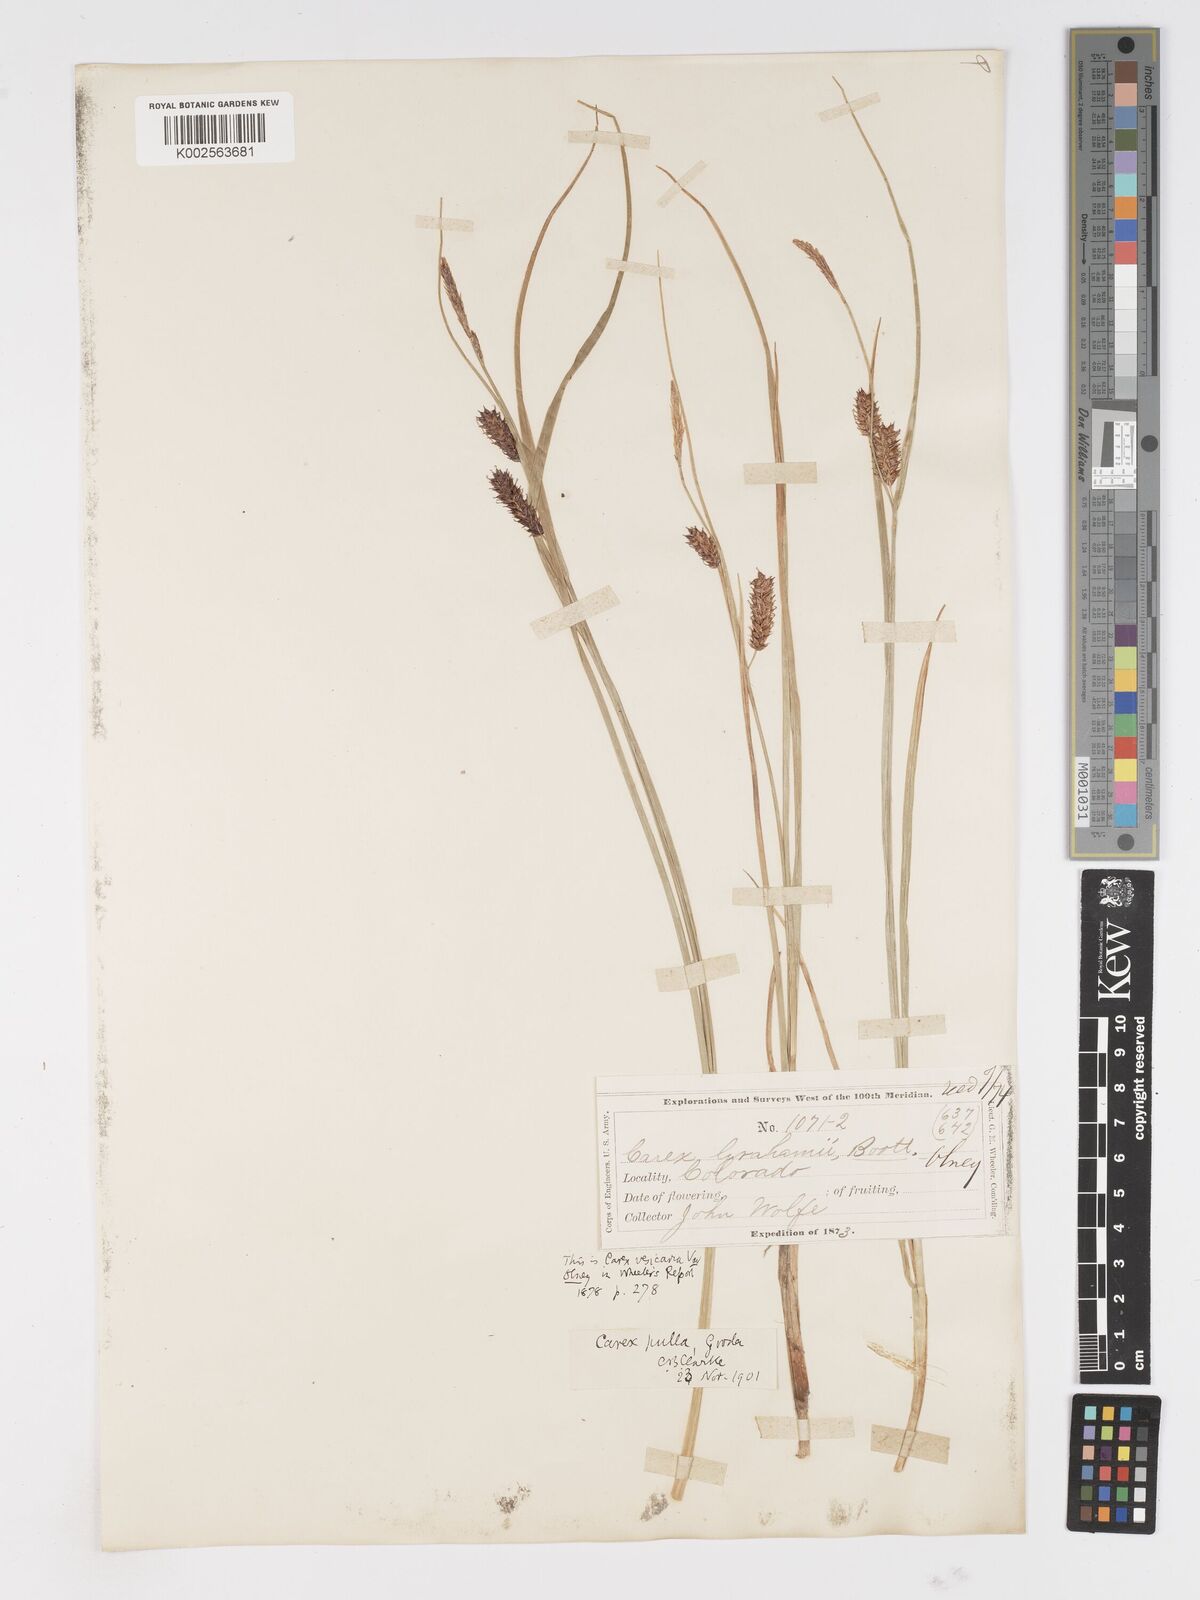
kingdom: Plantae
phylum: Tracheophyta
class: Liliopsida
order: Poales
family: Cyperaceae
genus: Carex
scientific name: Carex saxatilis
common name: Russet sedge
